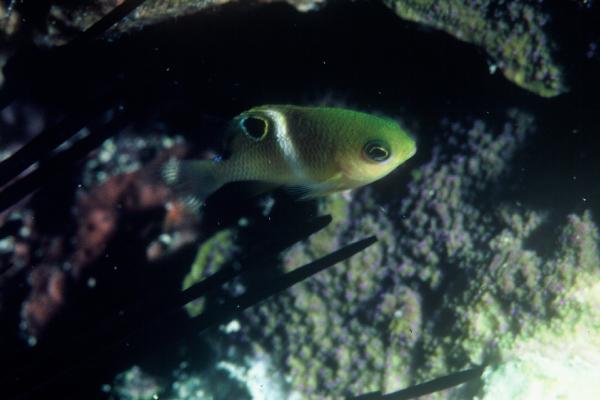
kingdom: Animalia
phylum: Chordata
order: Perciformes
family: Pomacentridae
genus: Plectroglyphidodon
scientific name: Plectroglyphidodon leucozonus
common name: White-band damsel
